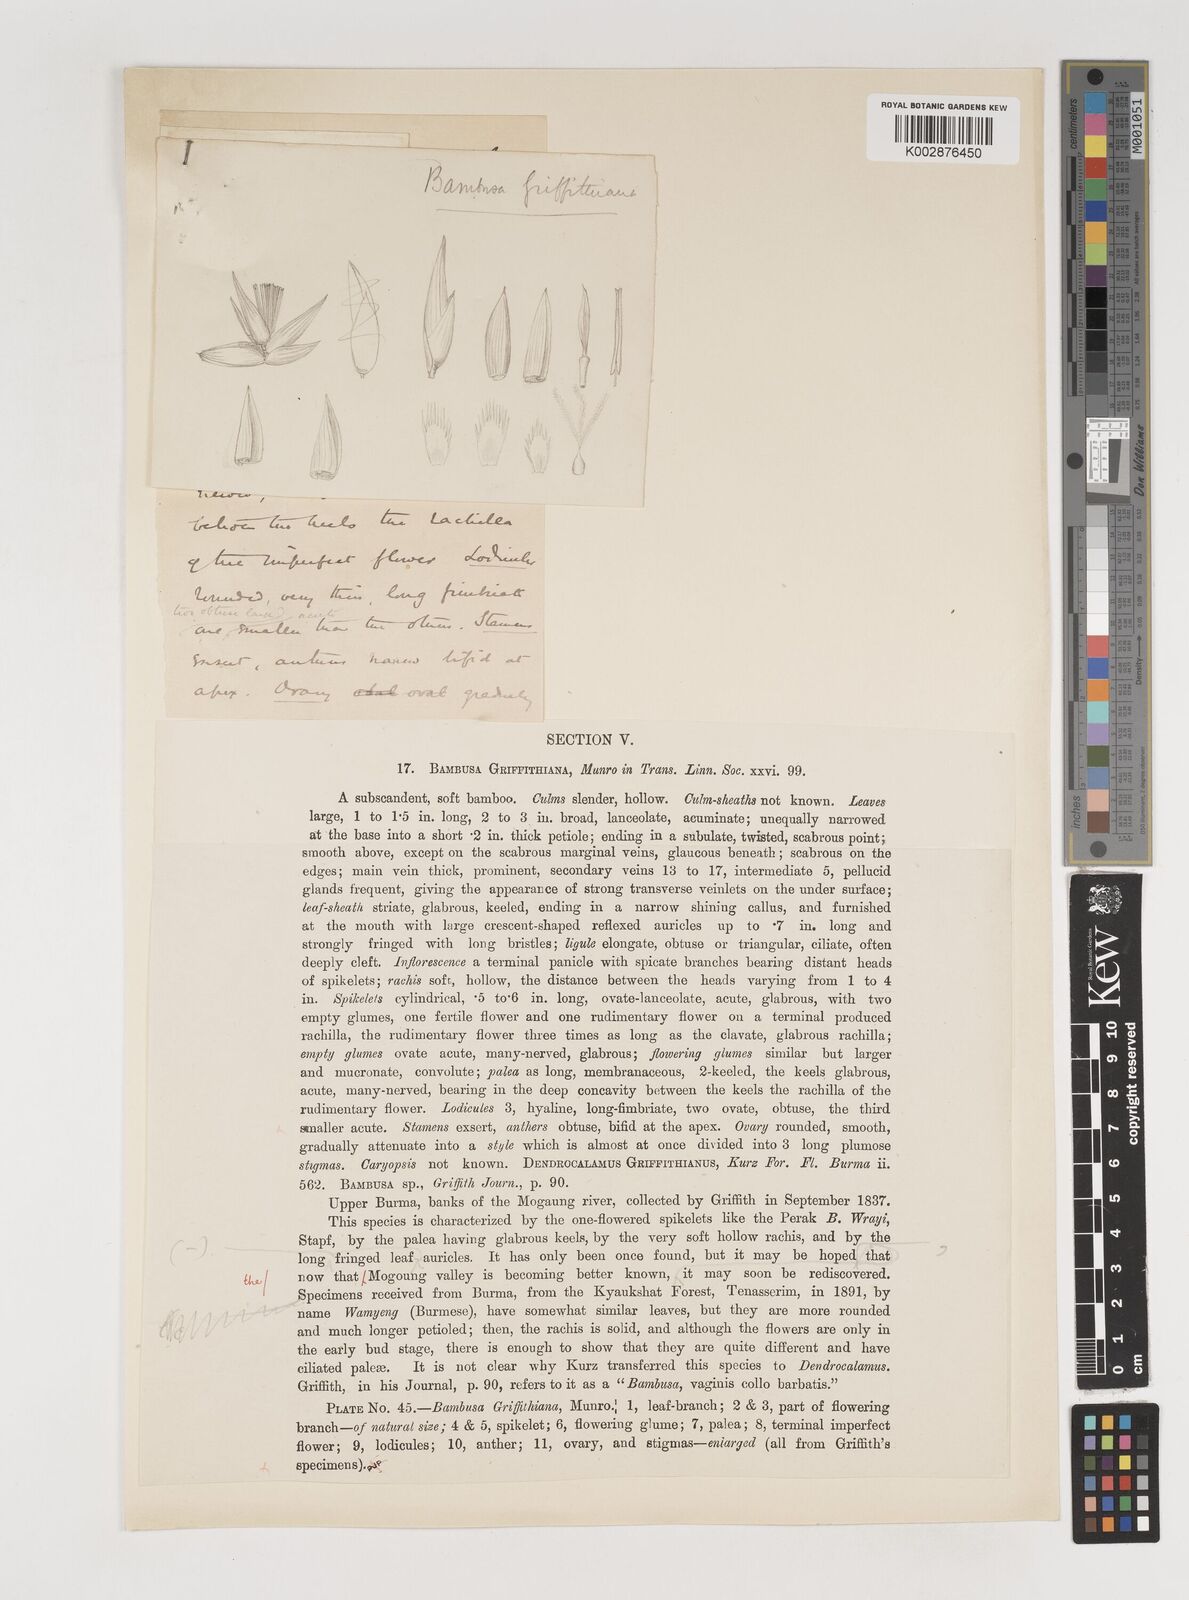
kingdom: Plantae
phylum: Tracheophyta
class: Liliopsida
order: Poales
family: Poaceae
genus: Bambusa
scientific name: Bambusa griffithiana
